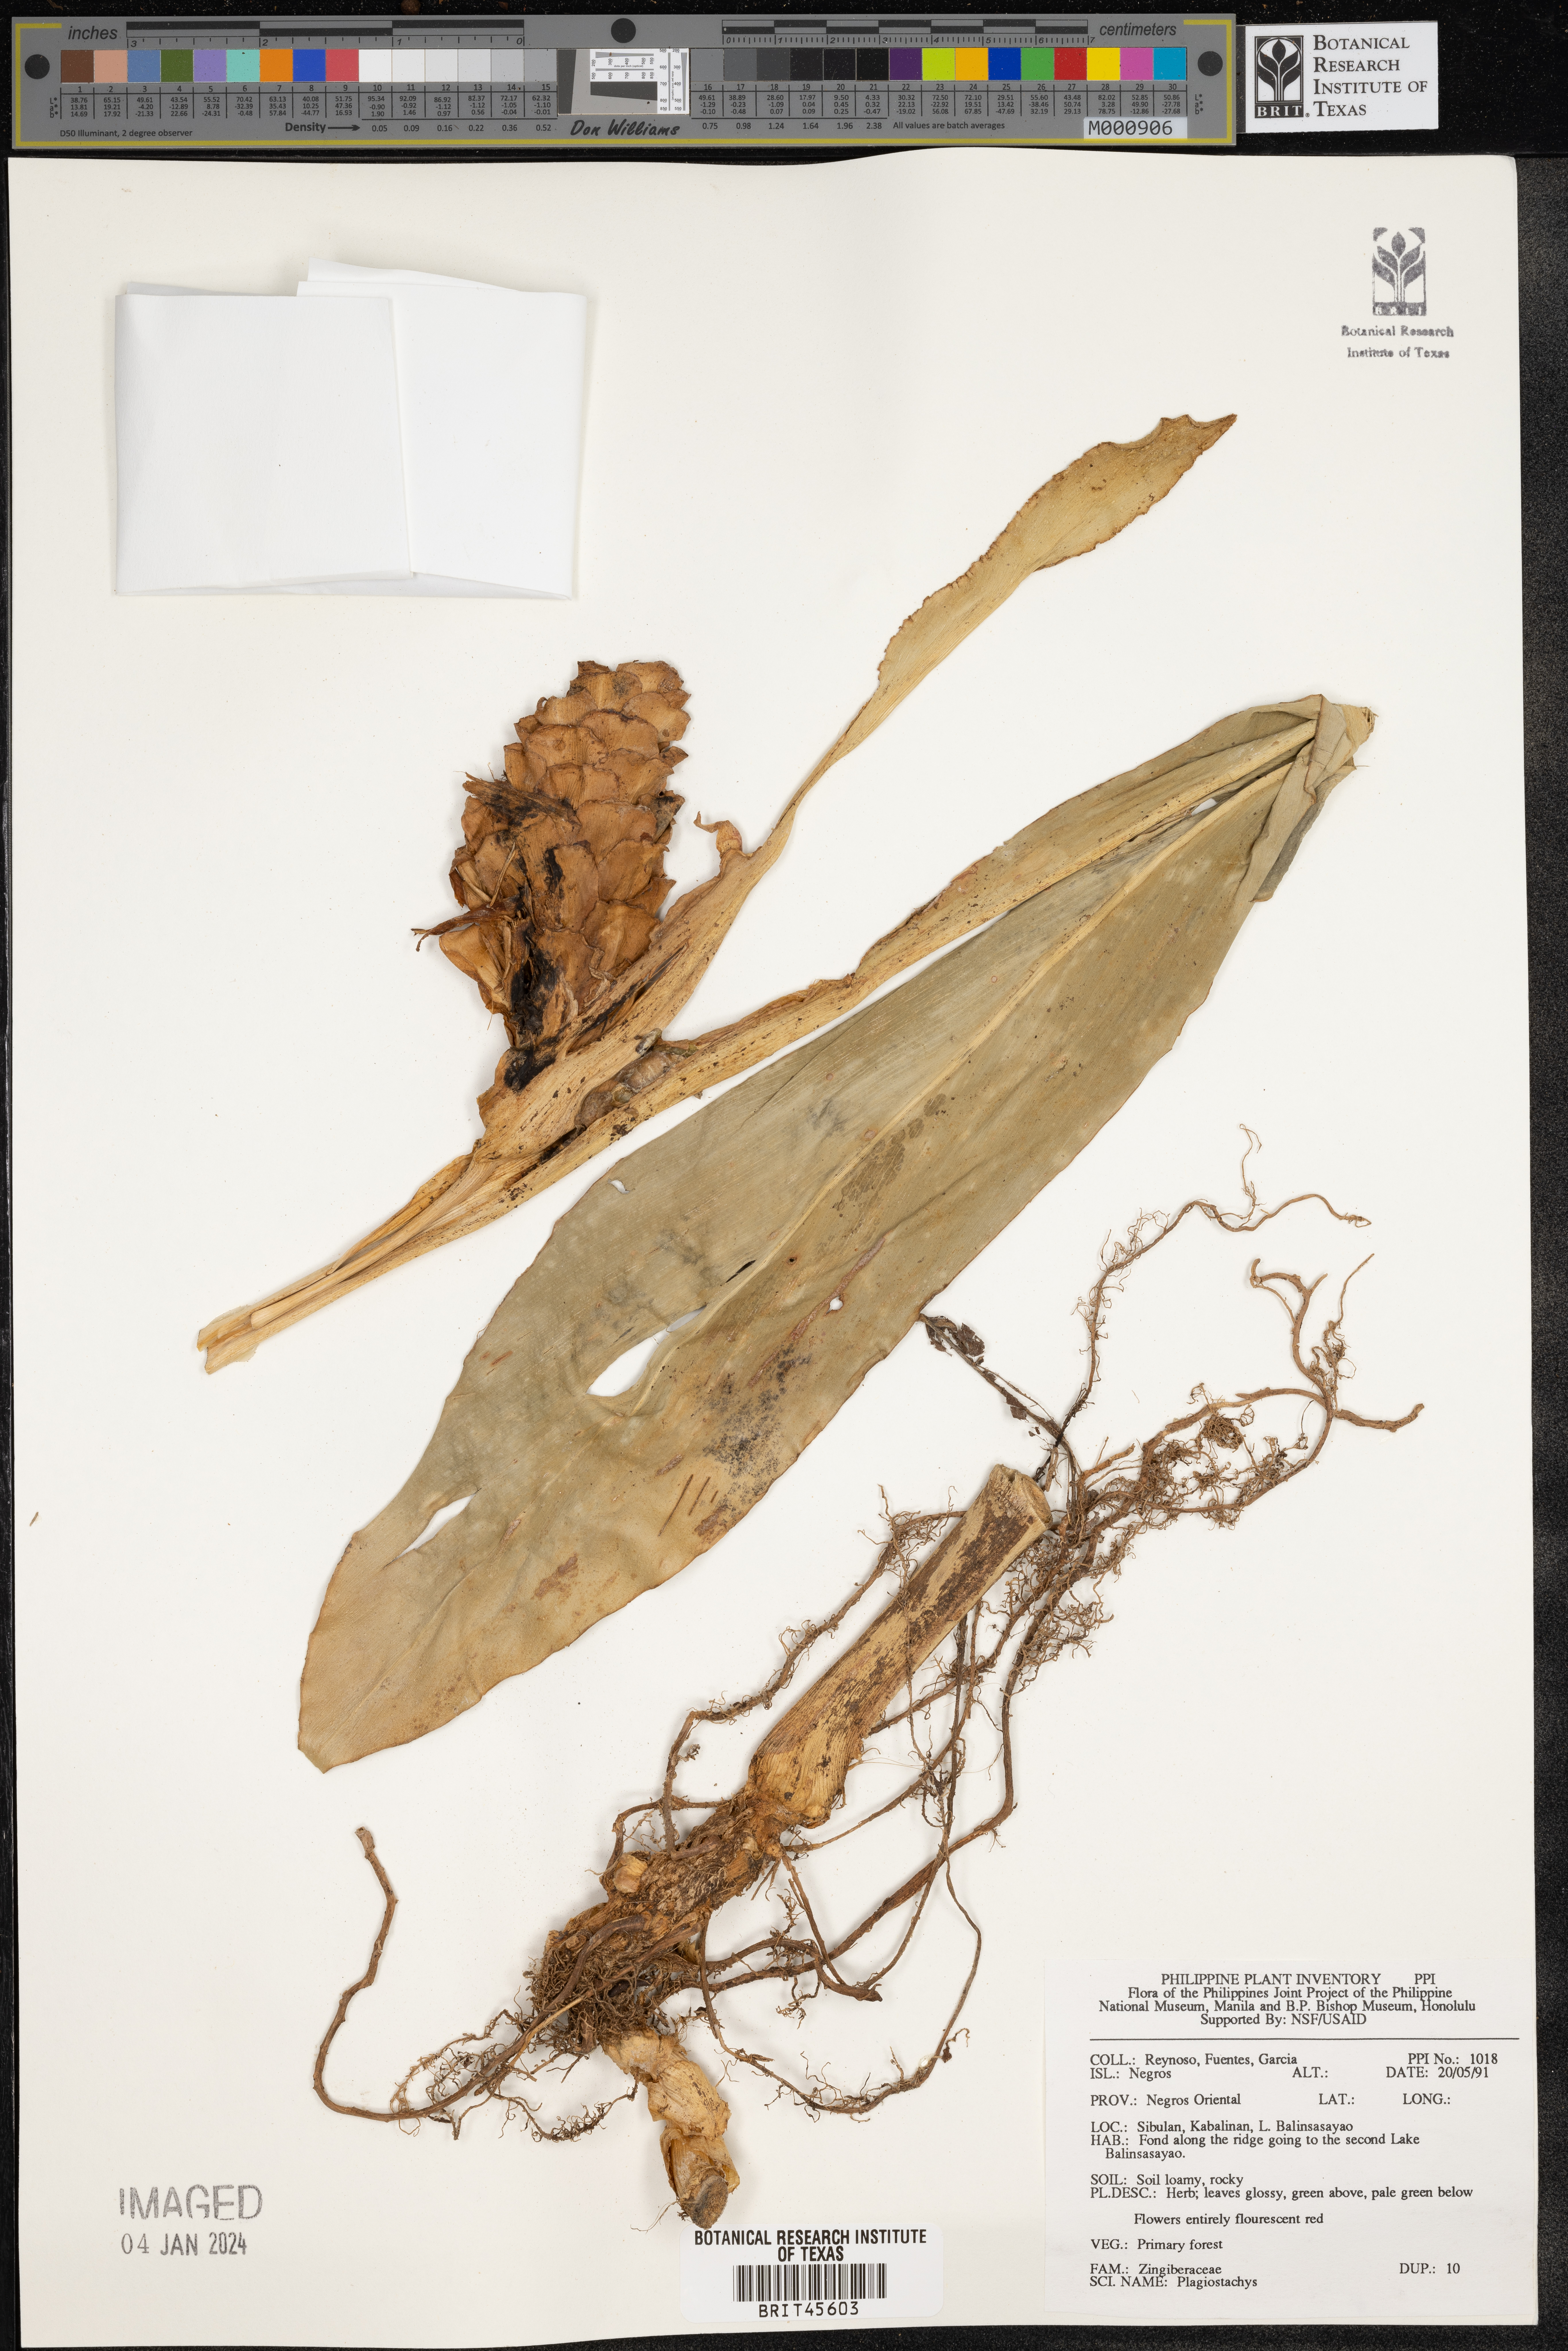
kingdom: Plantae
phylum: Tracheophyta
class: Liliopsida
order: Zingiberales
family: Zingiberaceae
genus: Plagiostachys
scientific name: Plagiostachys
